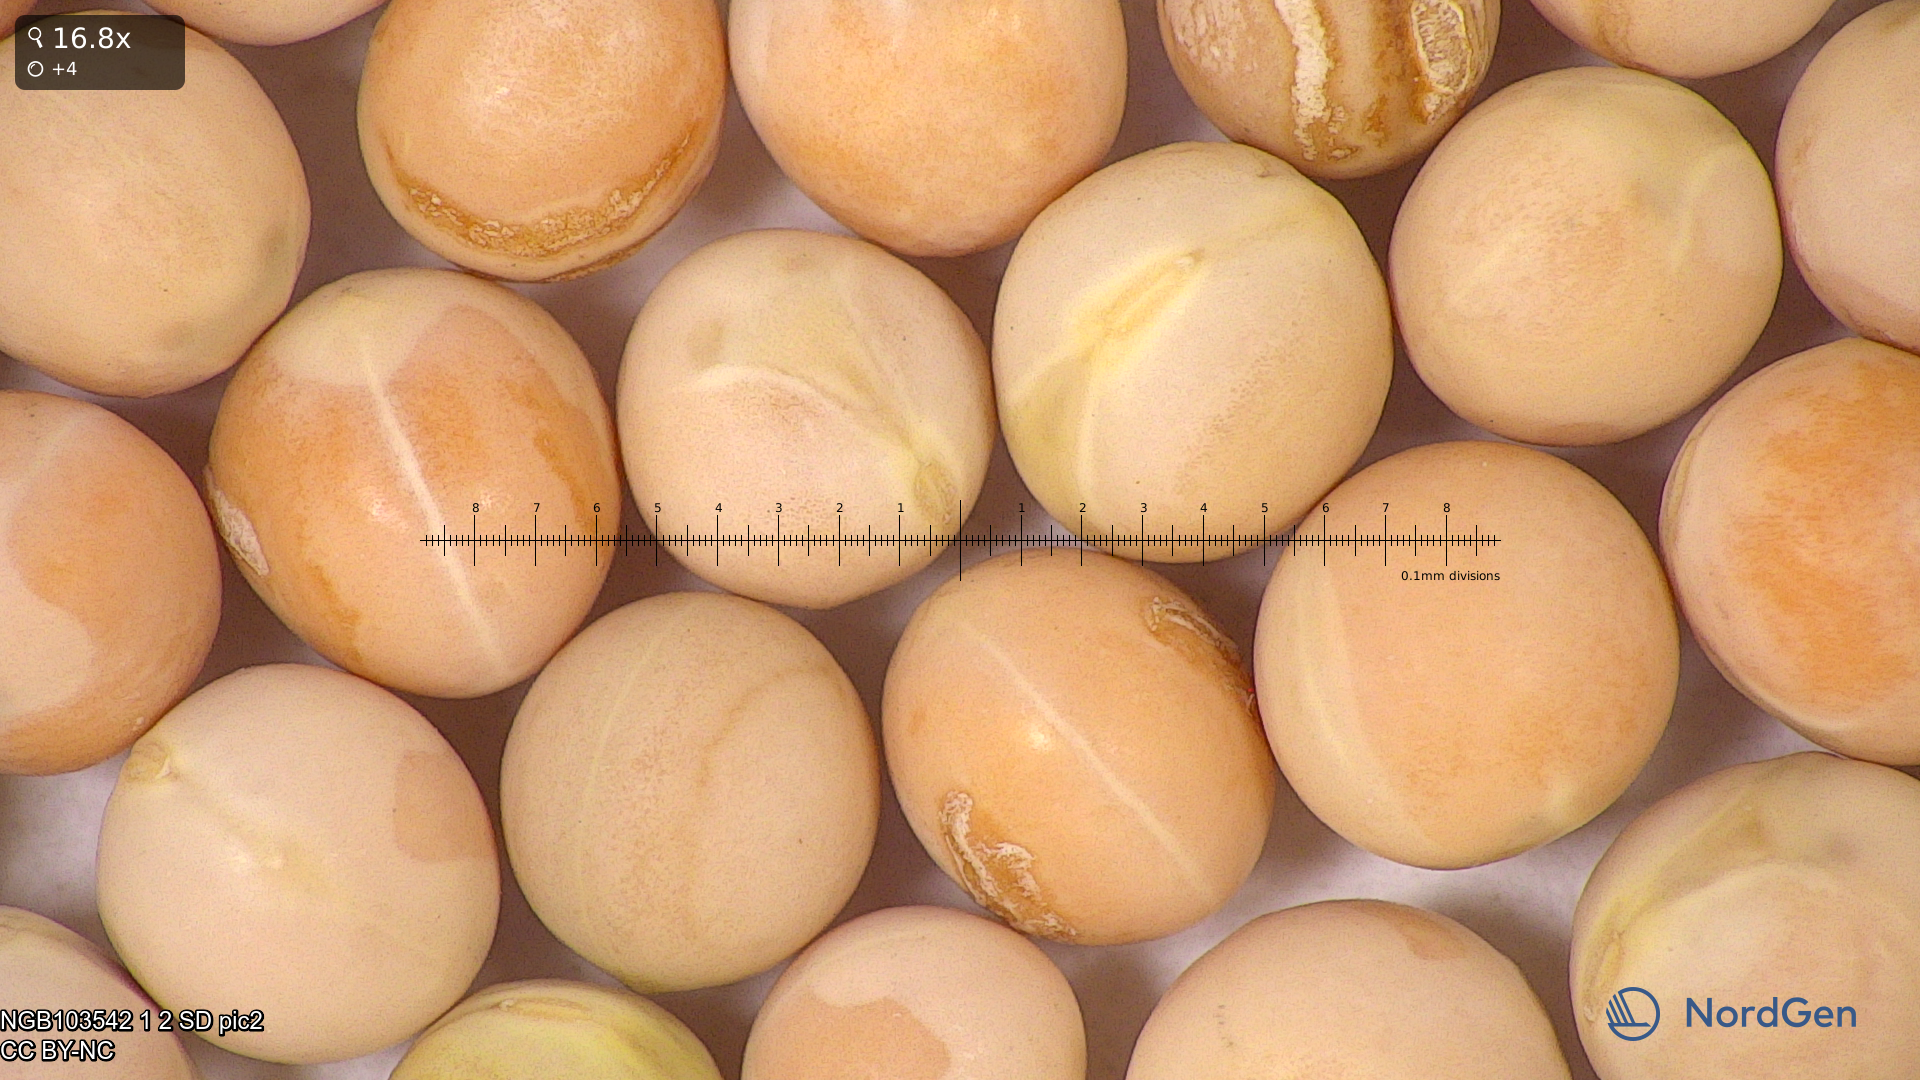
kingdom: Plantae
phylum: Tracheophyta
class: Magnoliopsida
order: Fabales
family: Fabaceae
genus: Lathyrus
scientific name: Lathyrus oleraceus
